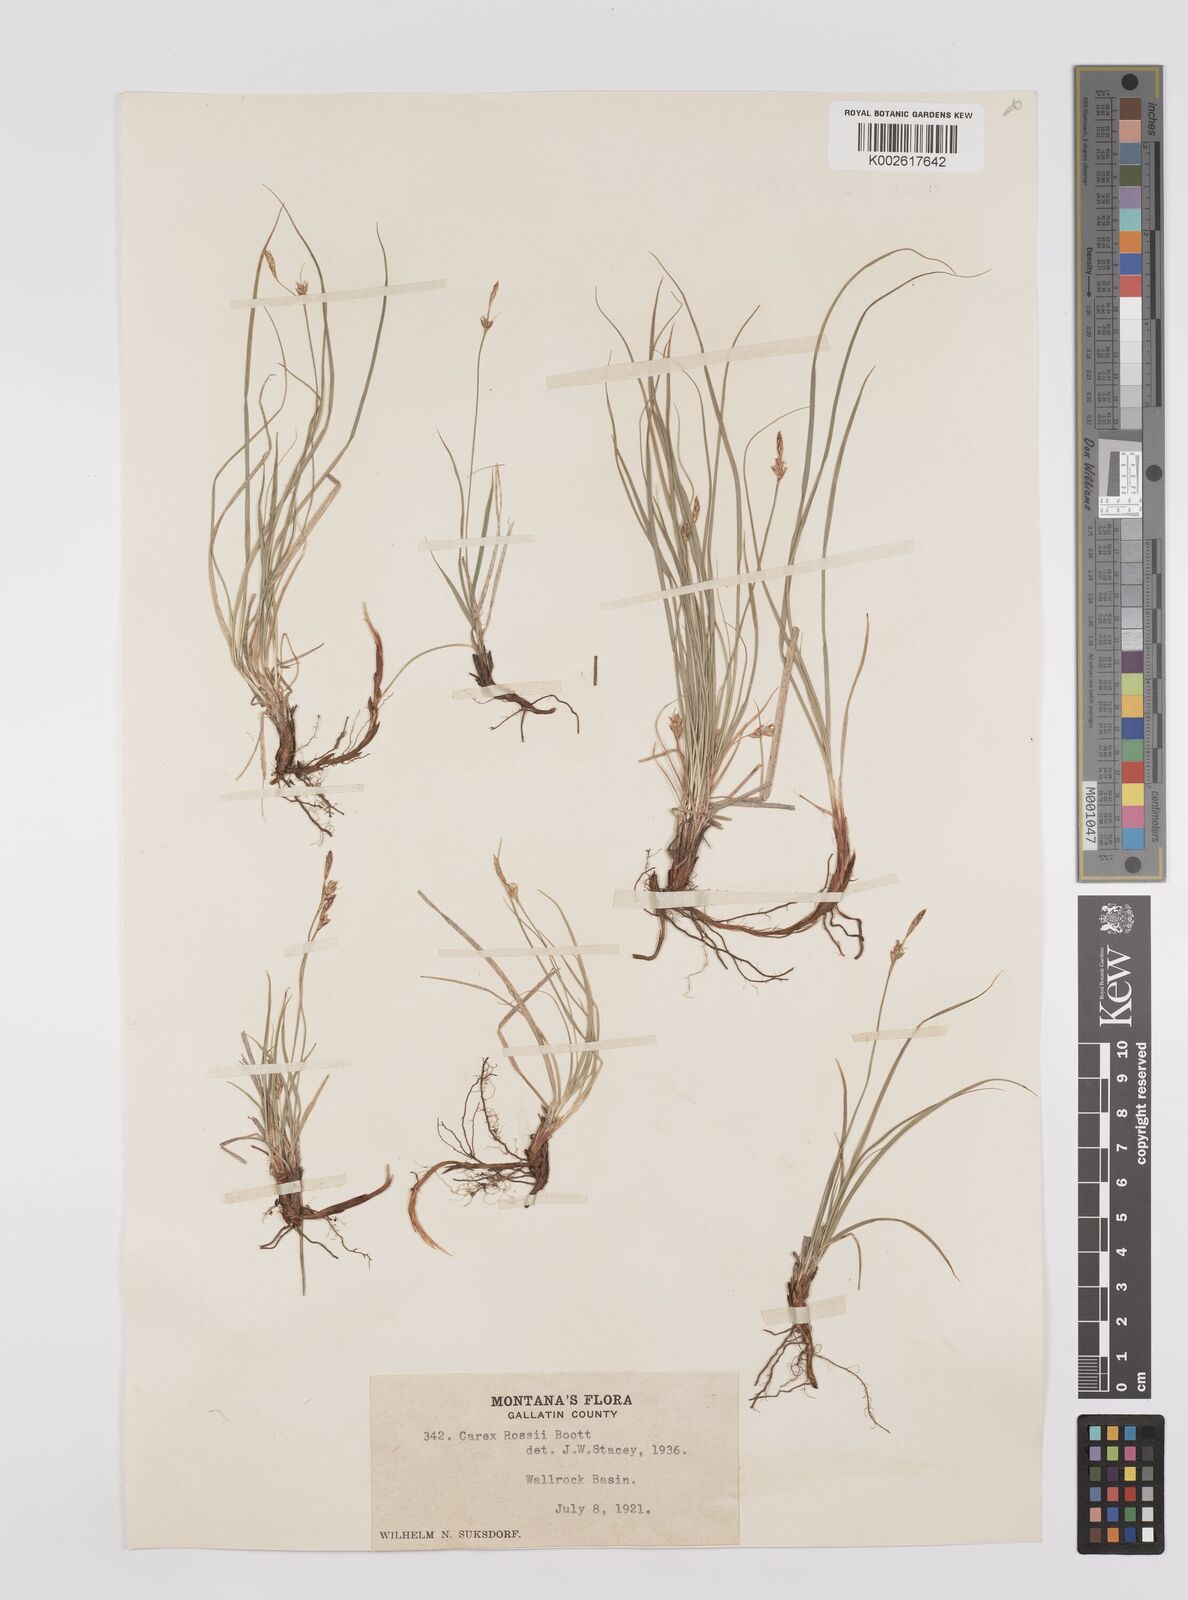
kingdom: Plantae
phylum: Tracheophyta
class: Liliopsida
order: Poales
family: Cyperaceae
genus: Carex
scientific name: Carex rossii
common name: Ross' sedge
